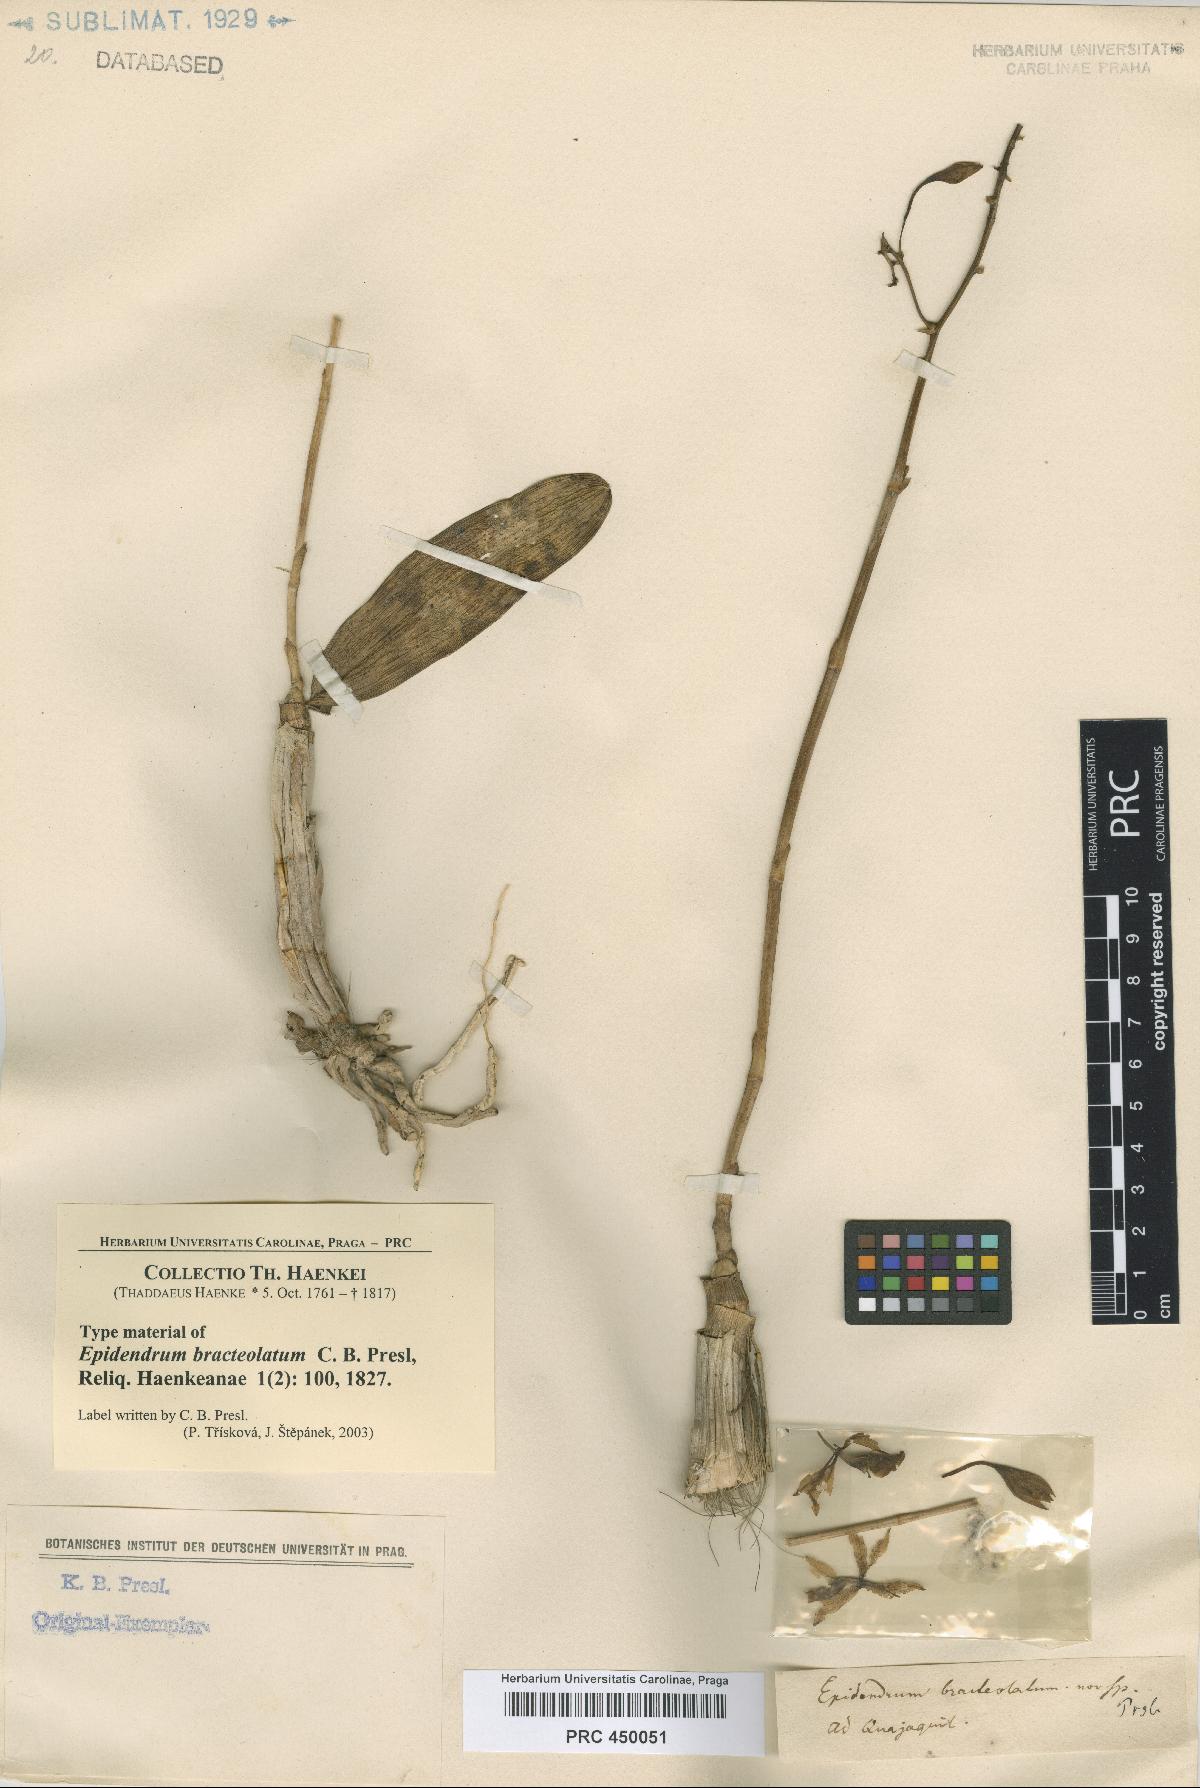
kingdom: Plantae
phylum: Tracheophyta
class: Liliopsida
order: Asparagales
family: Orchidaceae
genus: Epidendrum
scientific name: Epidendrum bracteolatum
